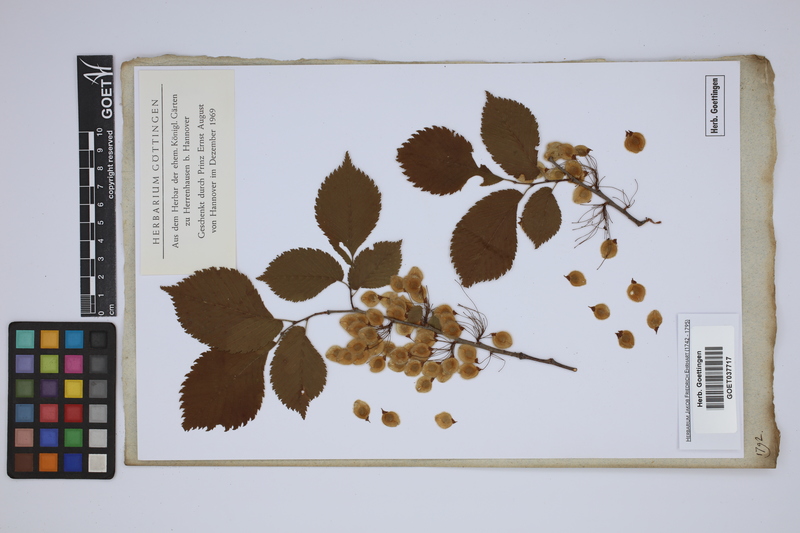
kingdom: Plantae
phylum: Tracheophyta
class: Magnoliopsida
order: Rosales
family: Ulmaceae
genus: Ulmus
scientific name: Ulmus
